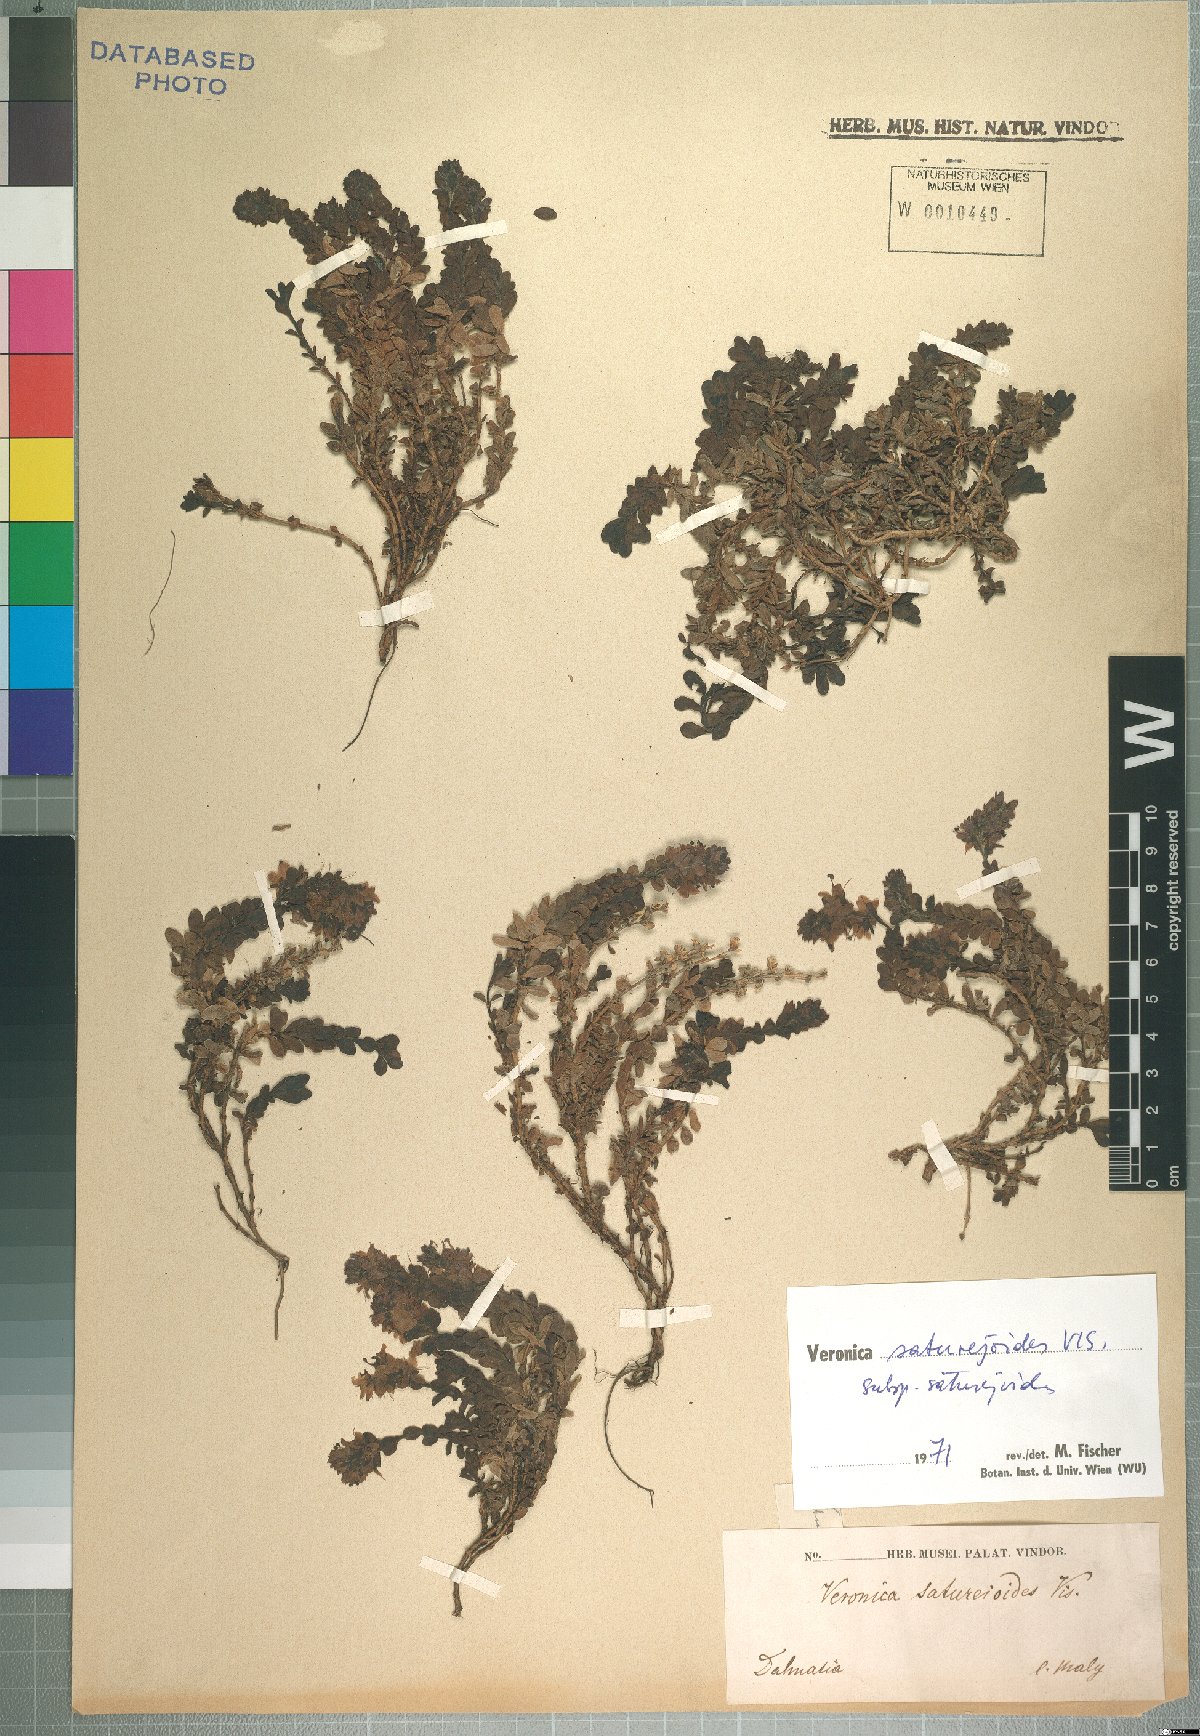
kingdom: Plantae
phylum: Tracheophyta
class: Magnoliopsida
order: Lamiales
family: Plantaginaceae
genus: Veronica
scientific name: Veronica saturejoides
